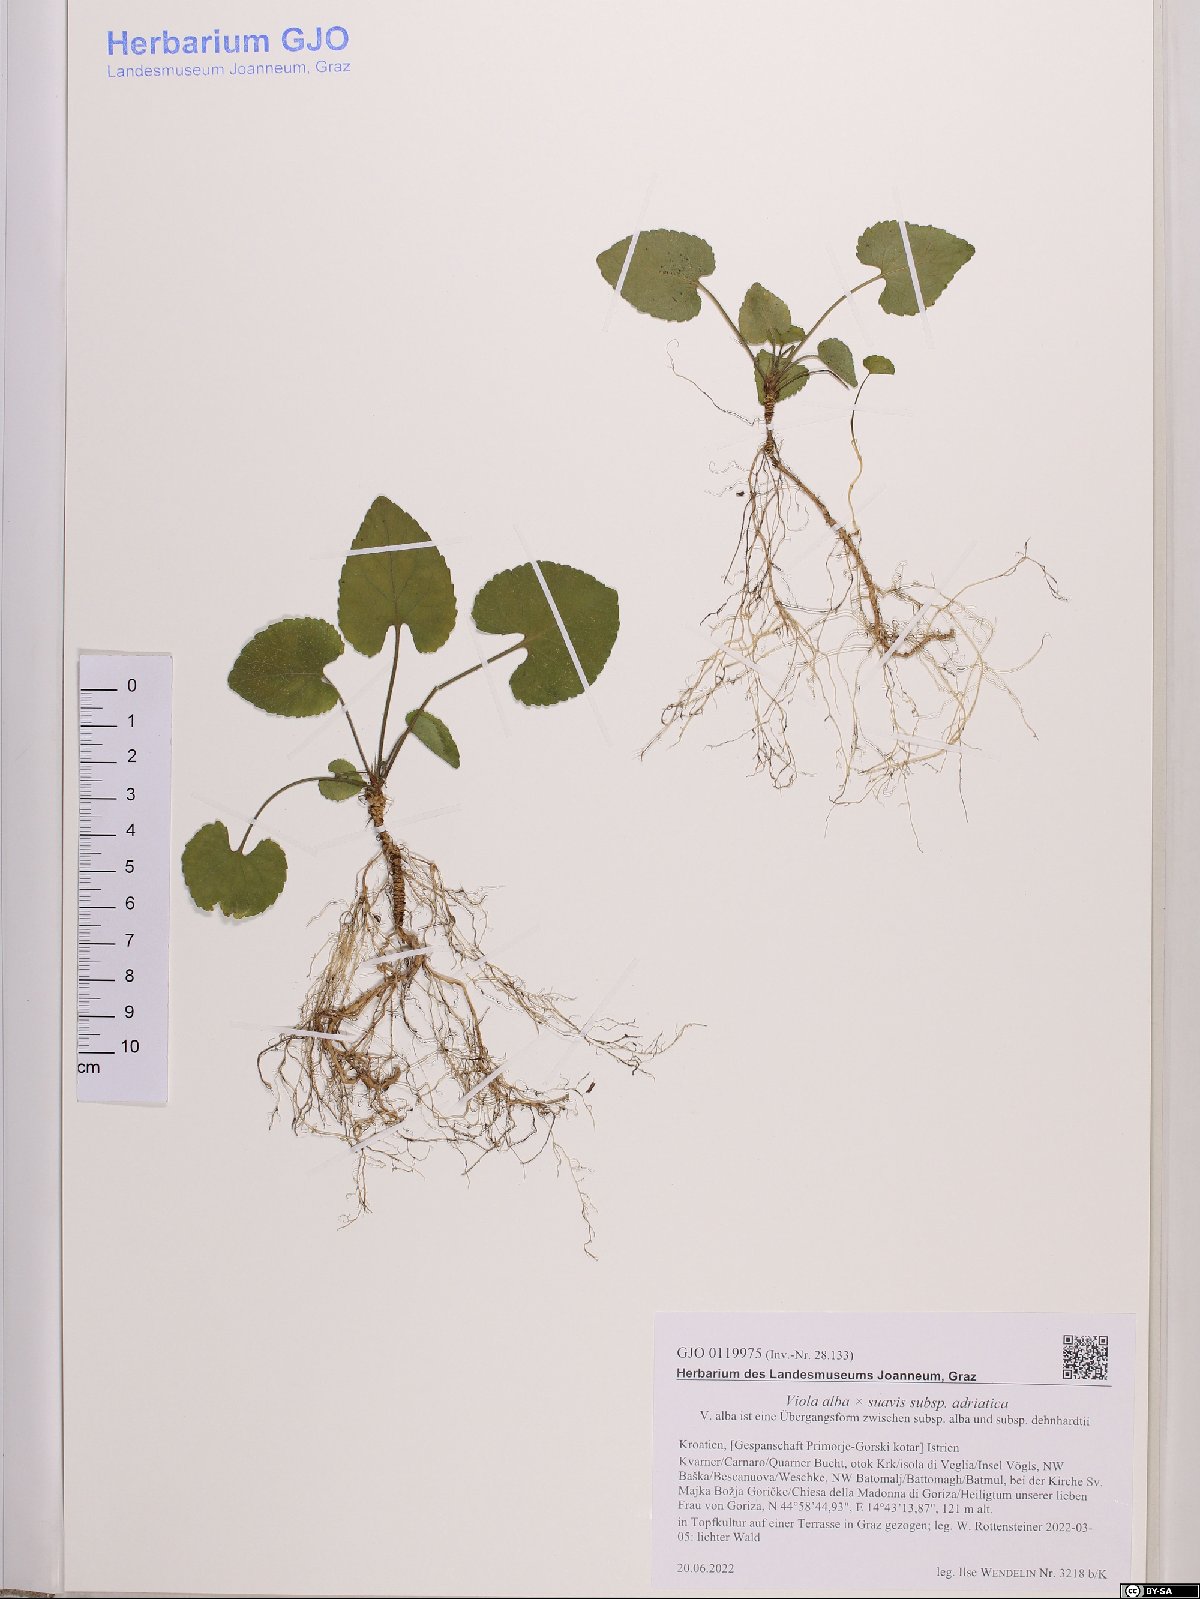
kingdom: Plantae
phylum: Tracheophyta
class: Magnoliopsida
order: Malpighiales
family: Violaceae
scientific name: Violaceae
